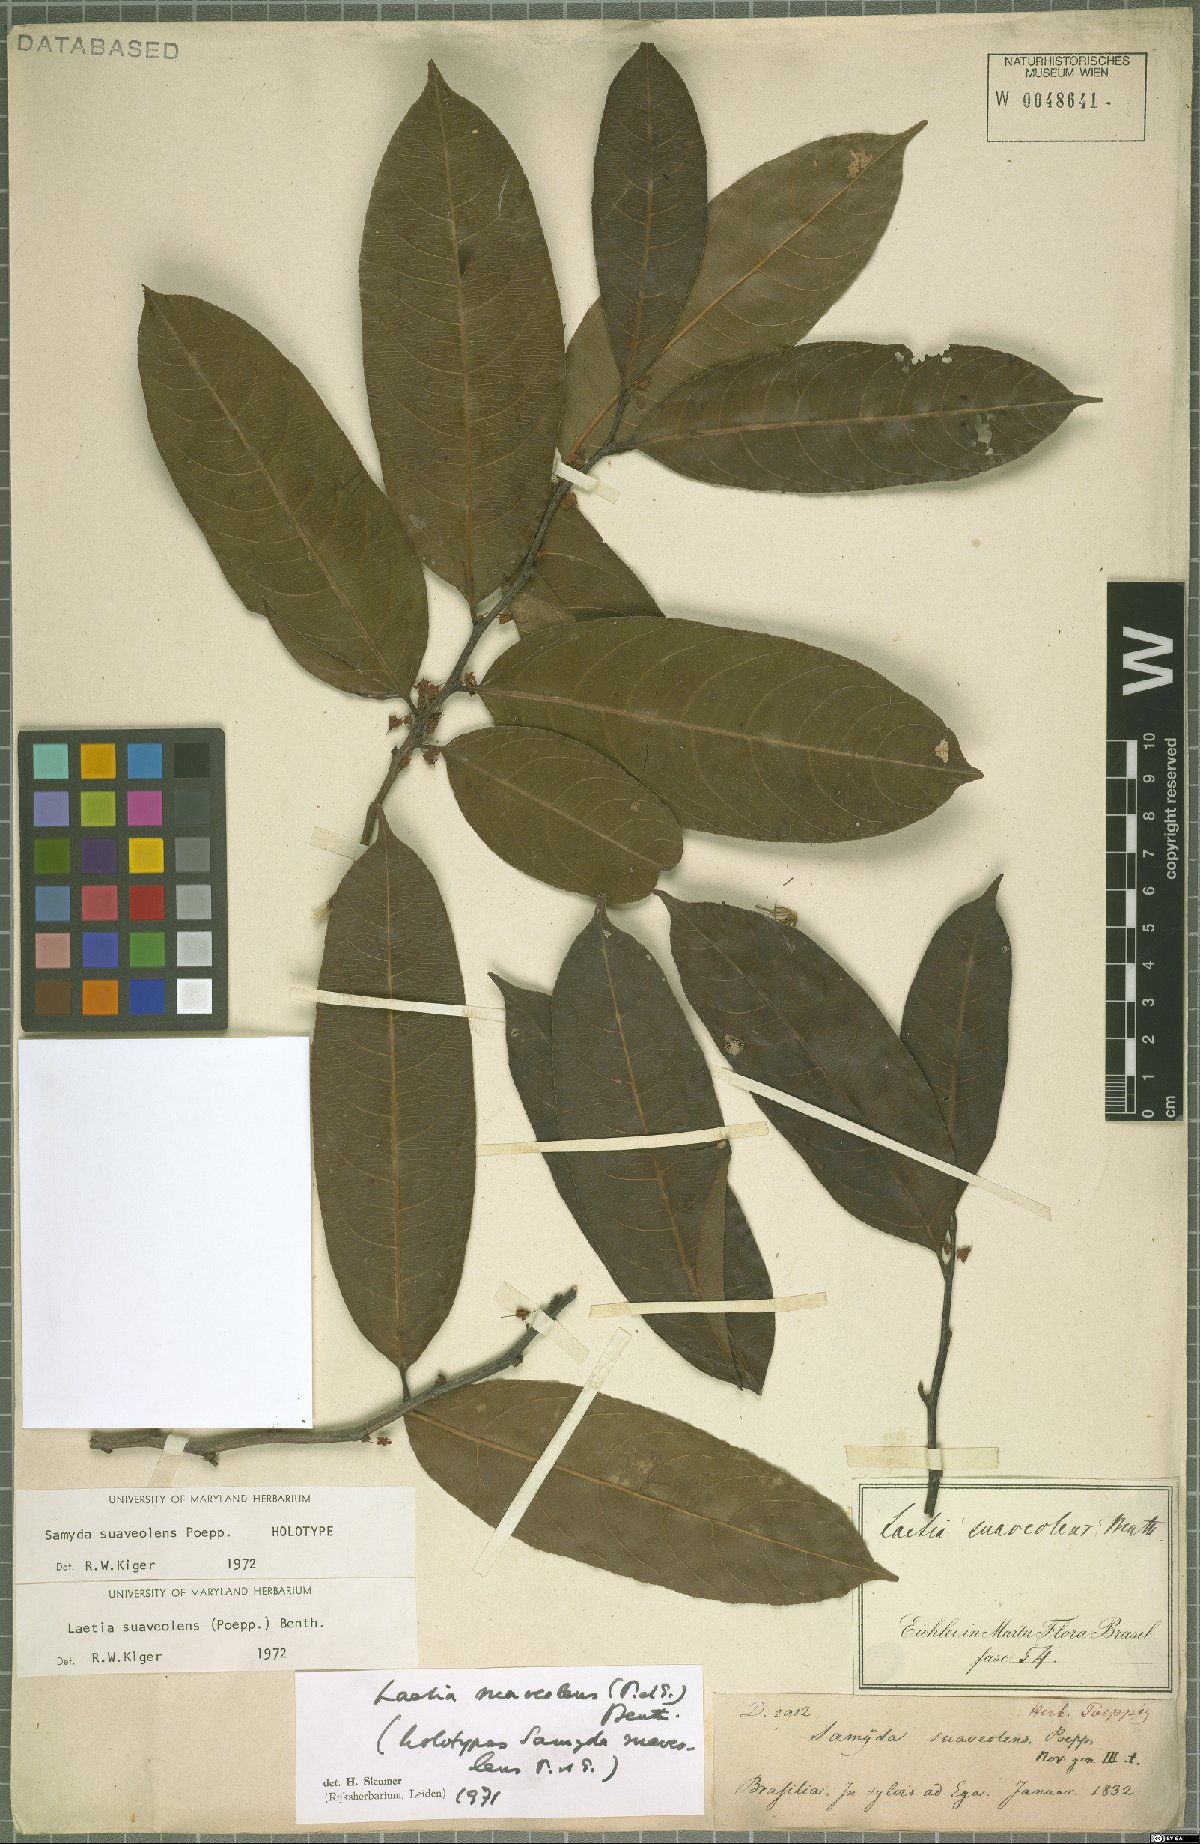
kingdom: Plantae
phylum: Tracheophyta
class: Magnoliopsida
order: Malpighiales
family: Salicaceae
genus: Casearia
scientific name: Casearia suaveolens
